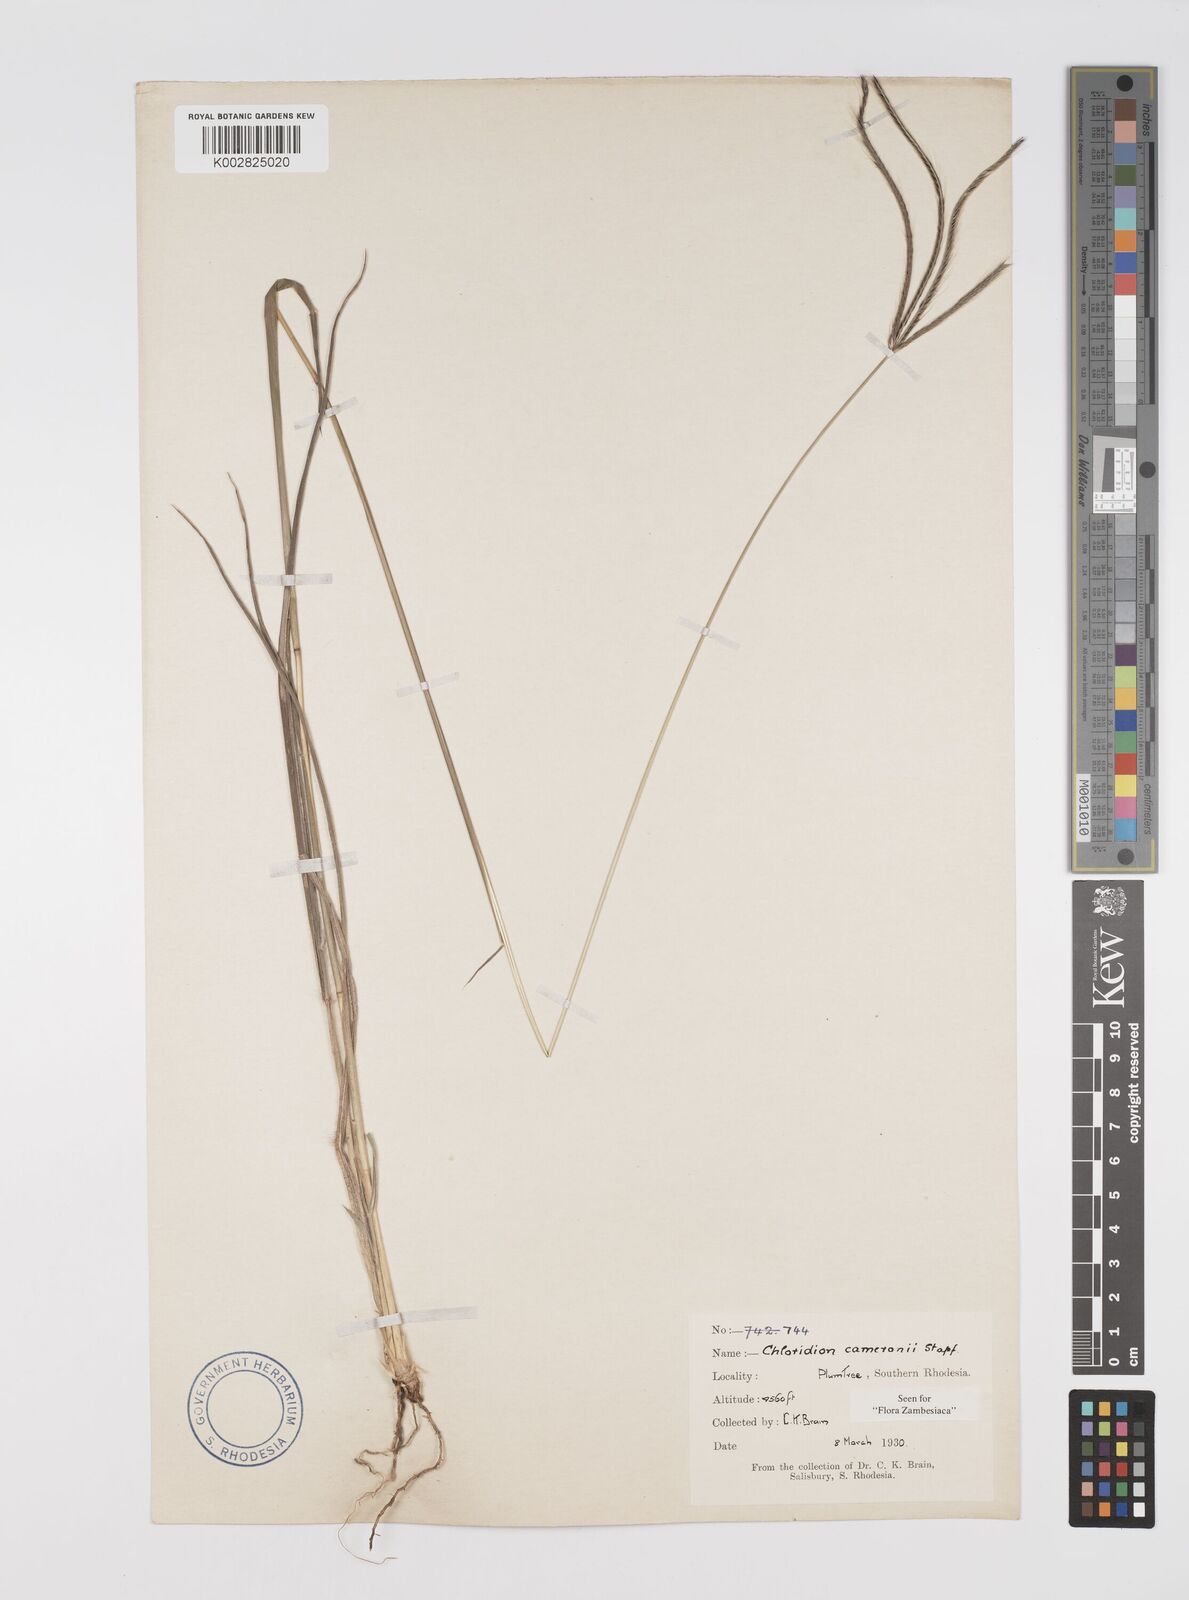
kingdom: Plantae
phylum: Tracheophyta
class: Liliopsida
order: Poales
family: Poaceae
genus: Stereochlaena
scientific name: Stereochlaena cameronii
